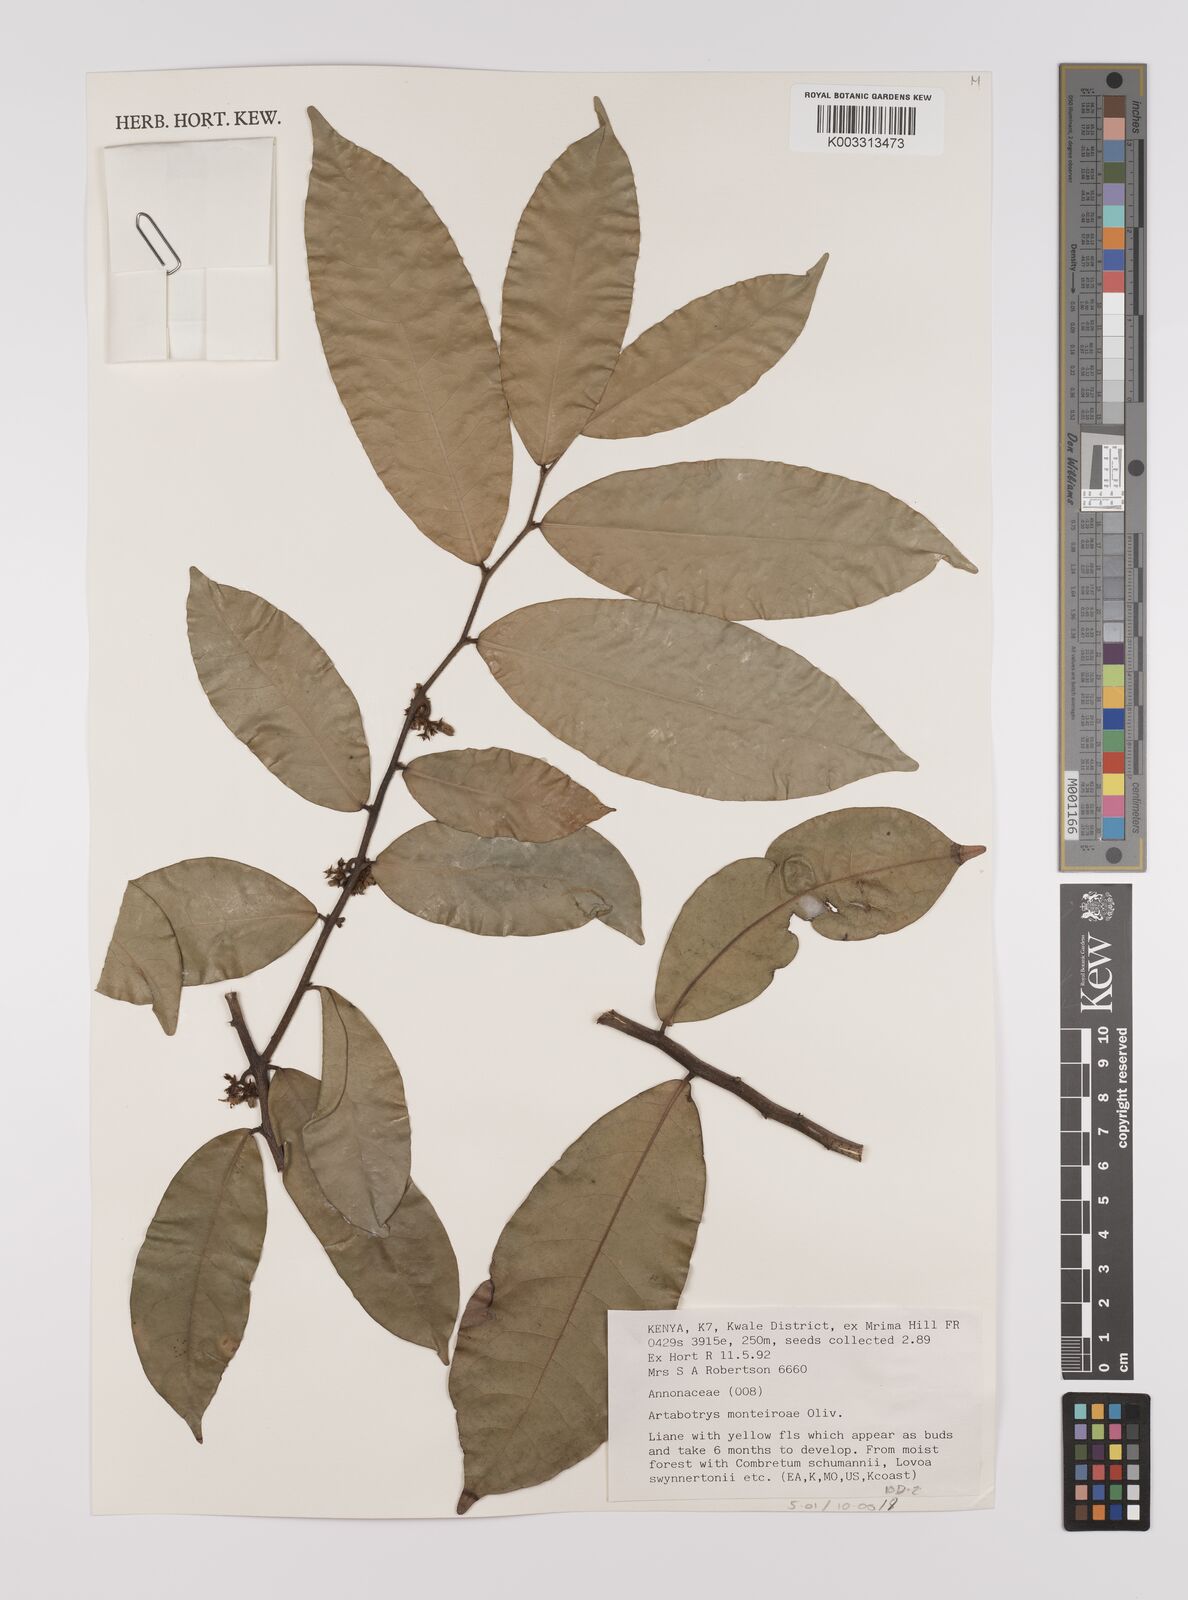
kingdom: Plantae
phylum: Tracheophyta
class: Magnoliopsida
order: Magnoliales
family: Annonaceae
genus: Artabotrys
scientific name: Artabotrys monteiroae
